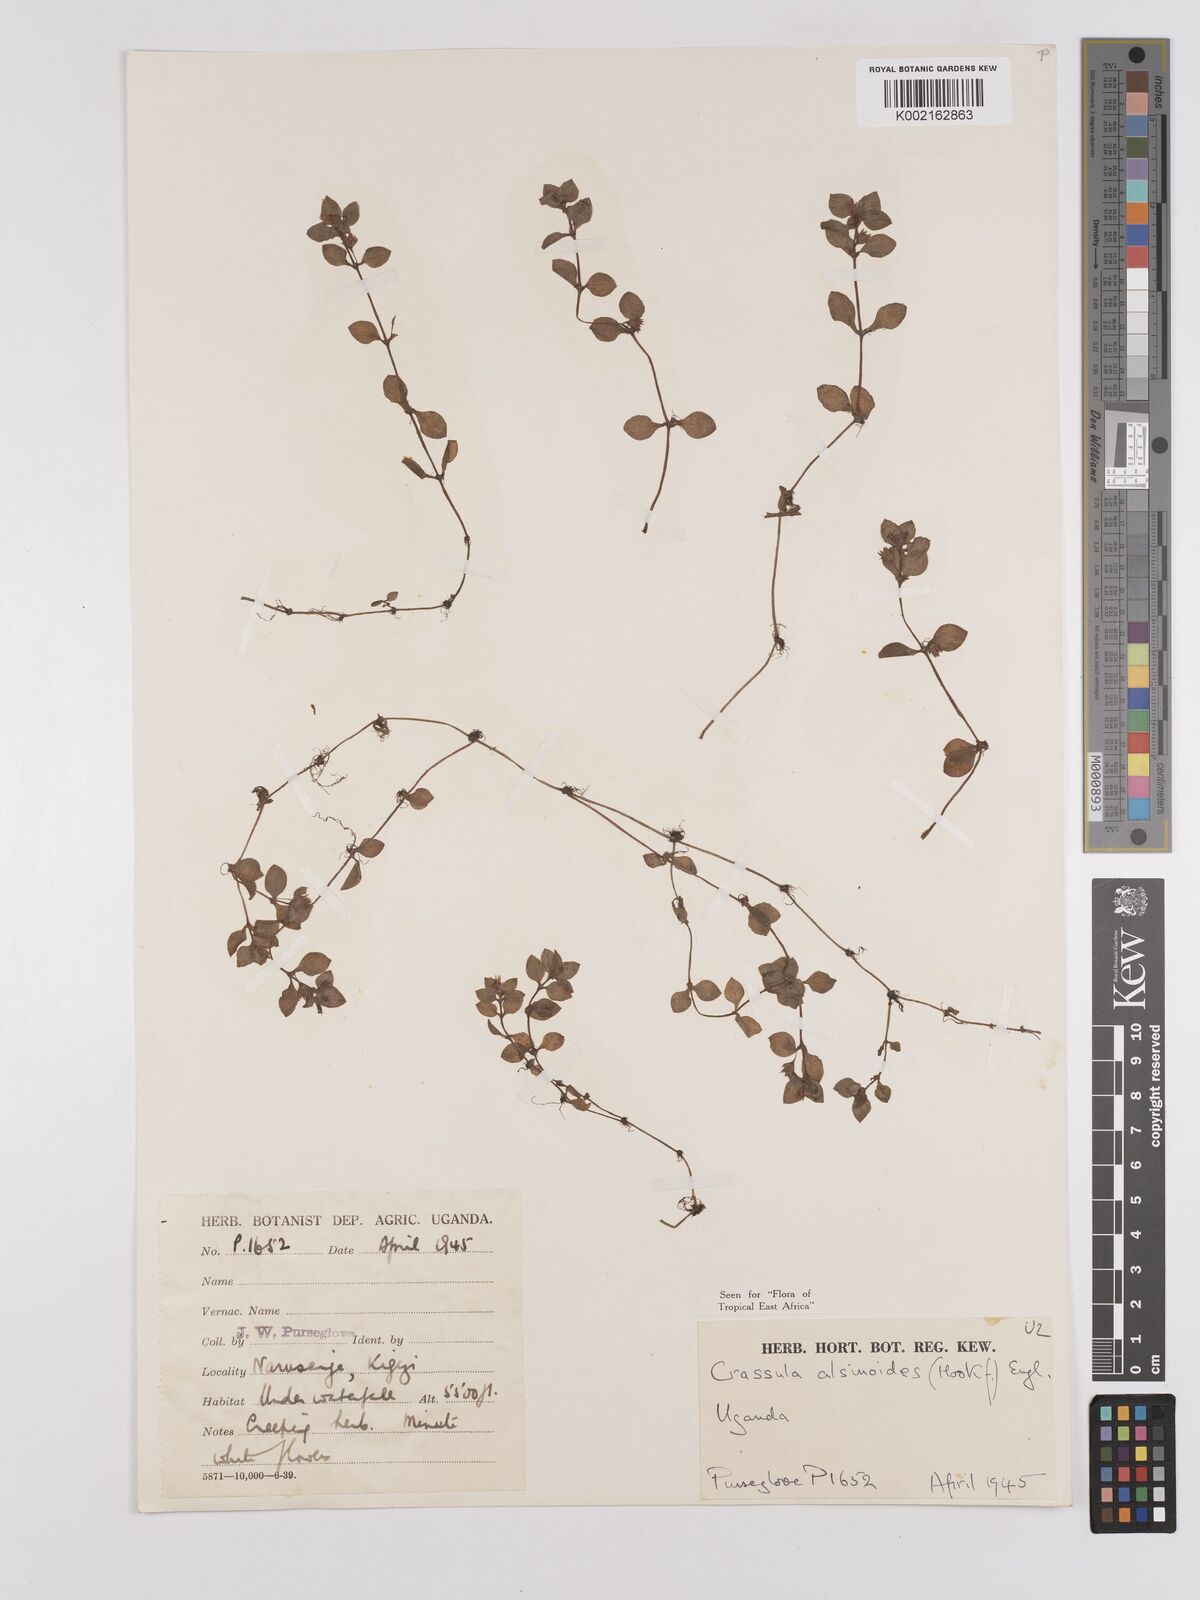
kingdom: Plantae
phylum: Tracheophyta
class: Magnoliopsida
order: Saxifragales
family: Crassulaceae
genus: Crassula
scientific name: Crassula alsinoides
